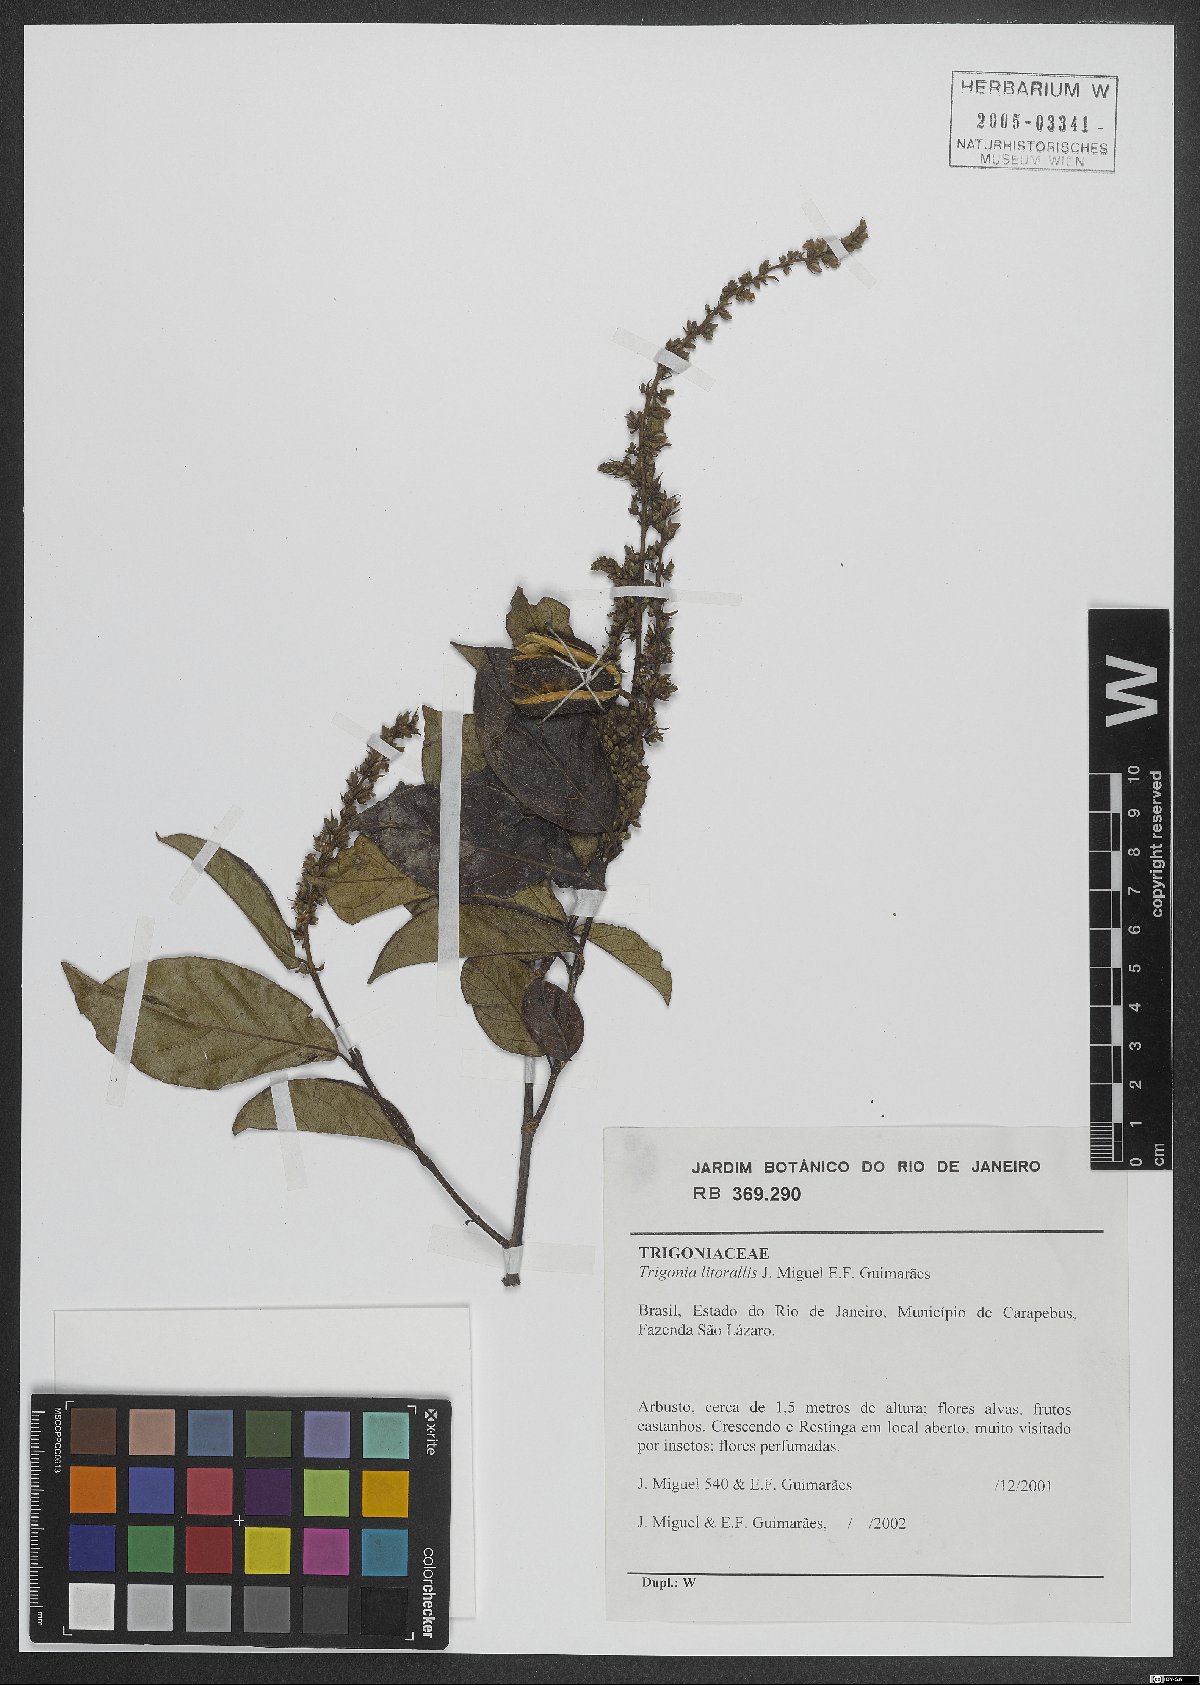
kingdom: Plantae
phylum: Tracheophyta
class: Magnoliopsida
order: Malpighiales
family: Trigoniaceae
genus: Trigonia
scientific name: Trigonia littoralis
